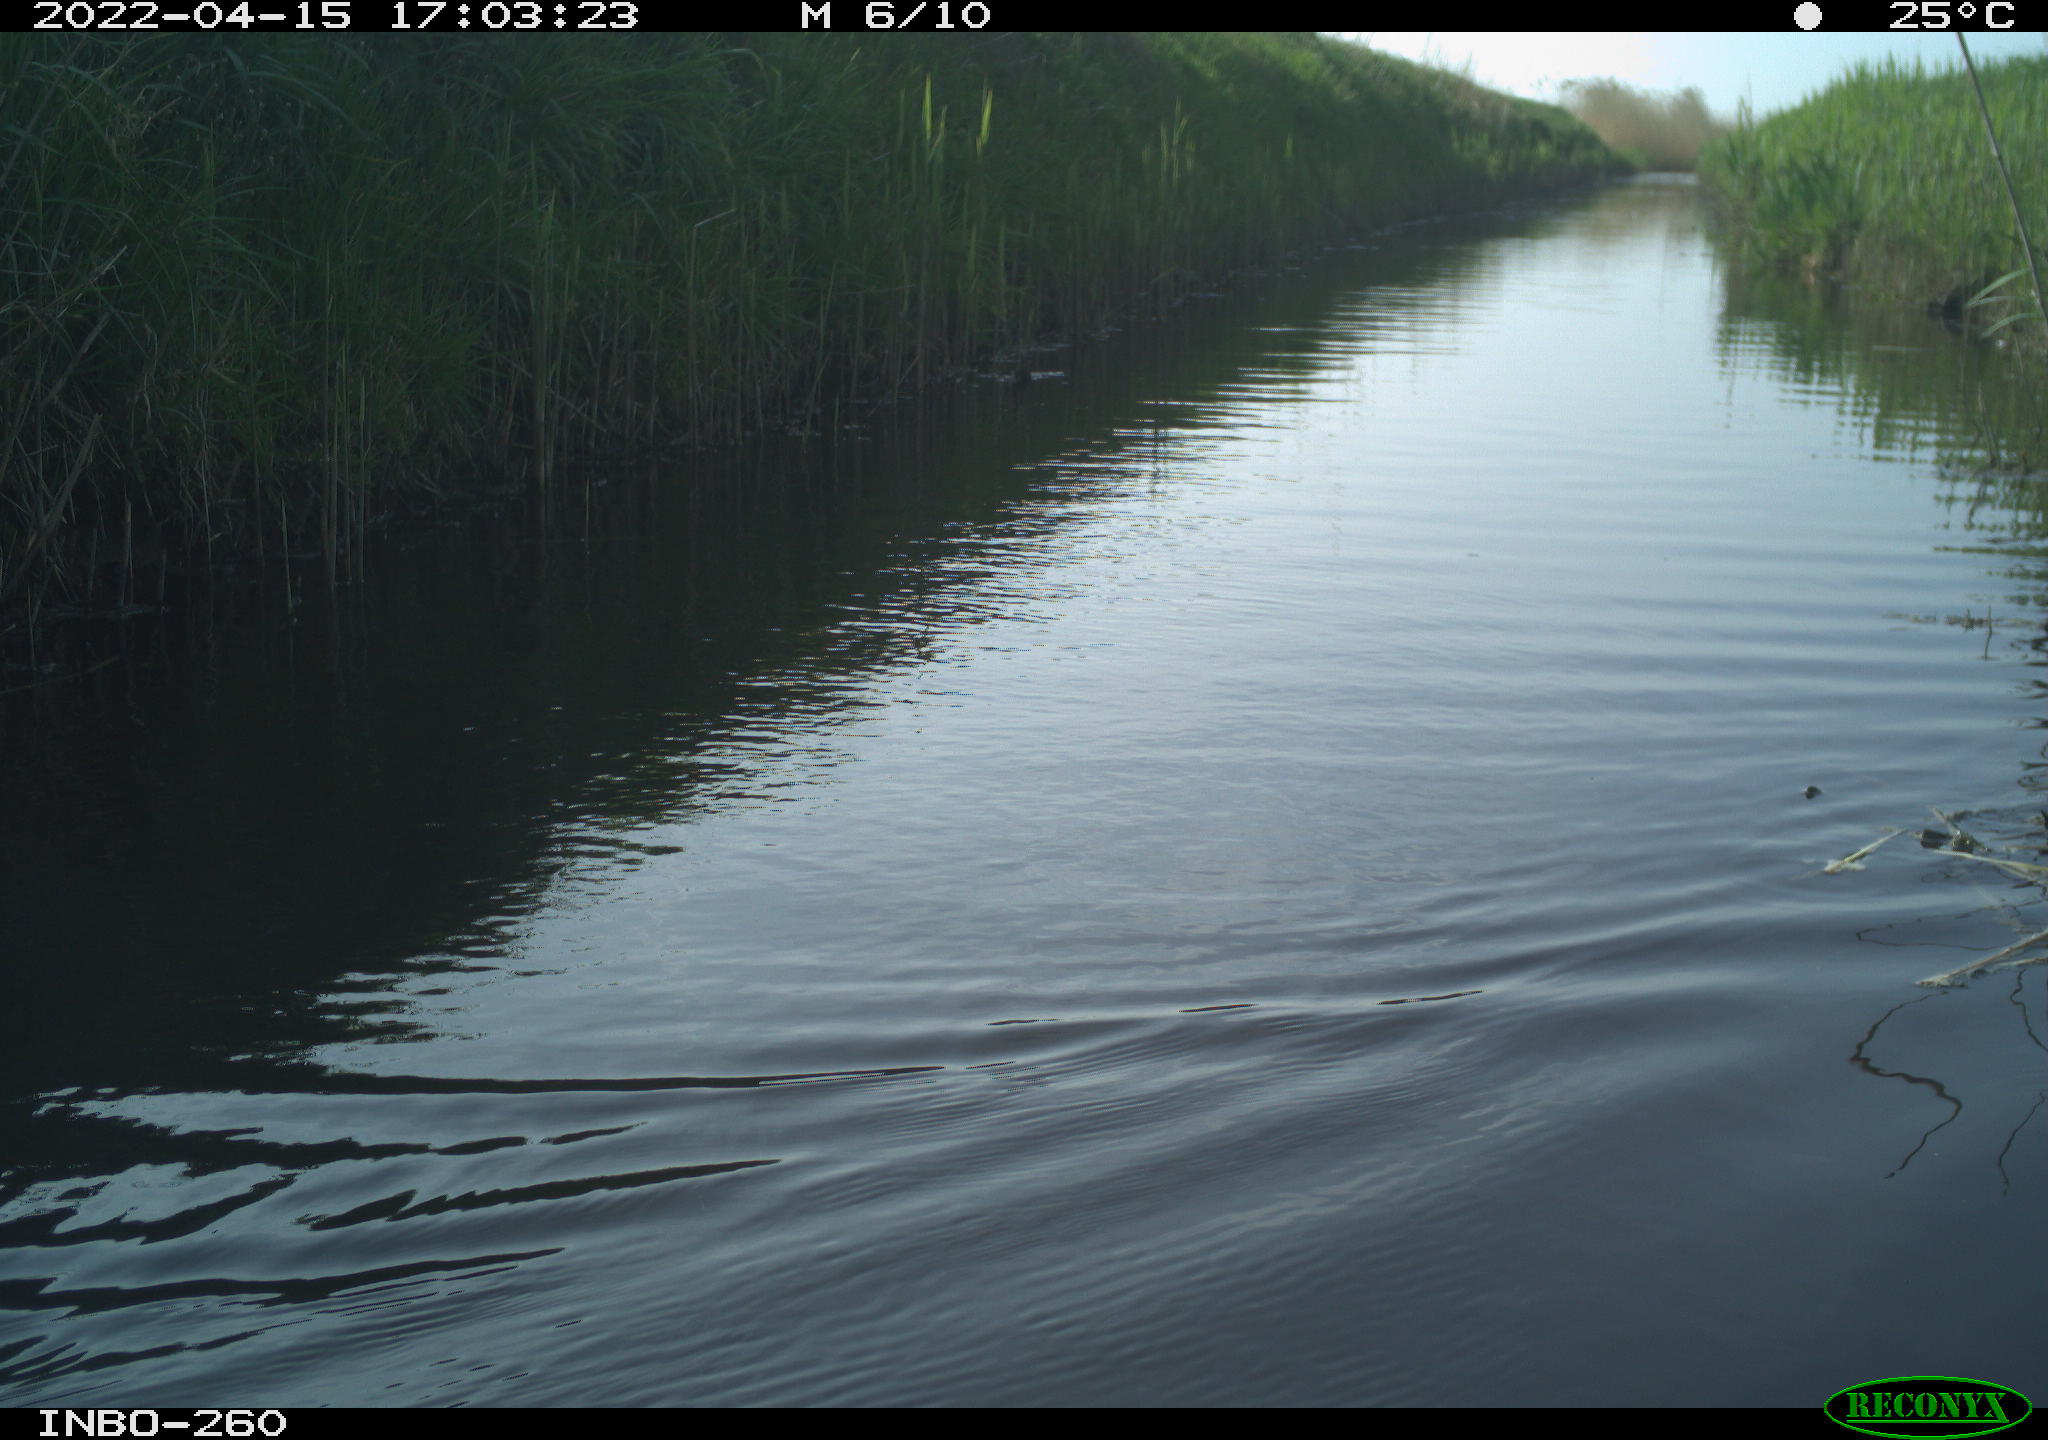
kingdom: Animalia
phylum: Chordata
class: Aves
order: Gruiformes
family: Rallidae
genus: Fulica
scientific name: Fulica atra
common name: Eurasian coot
